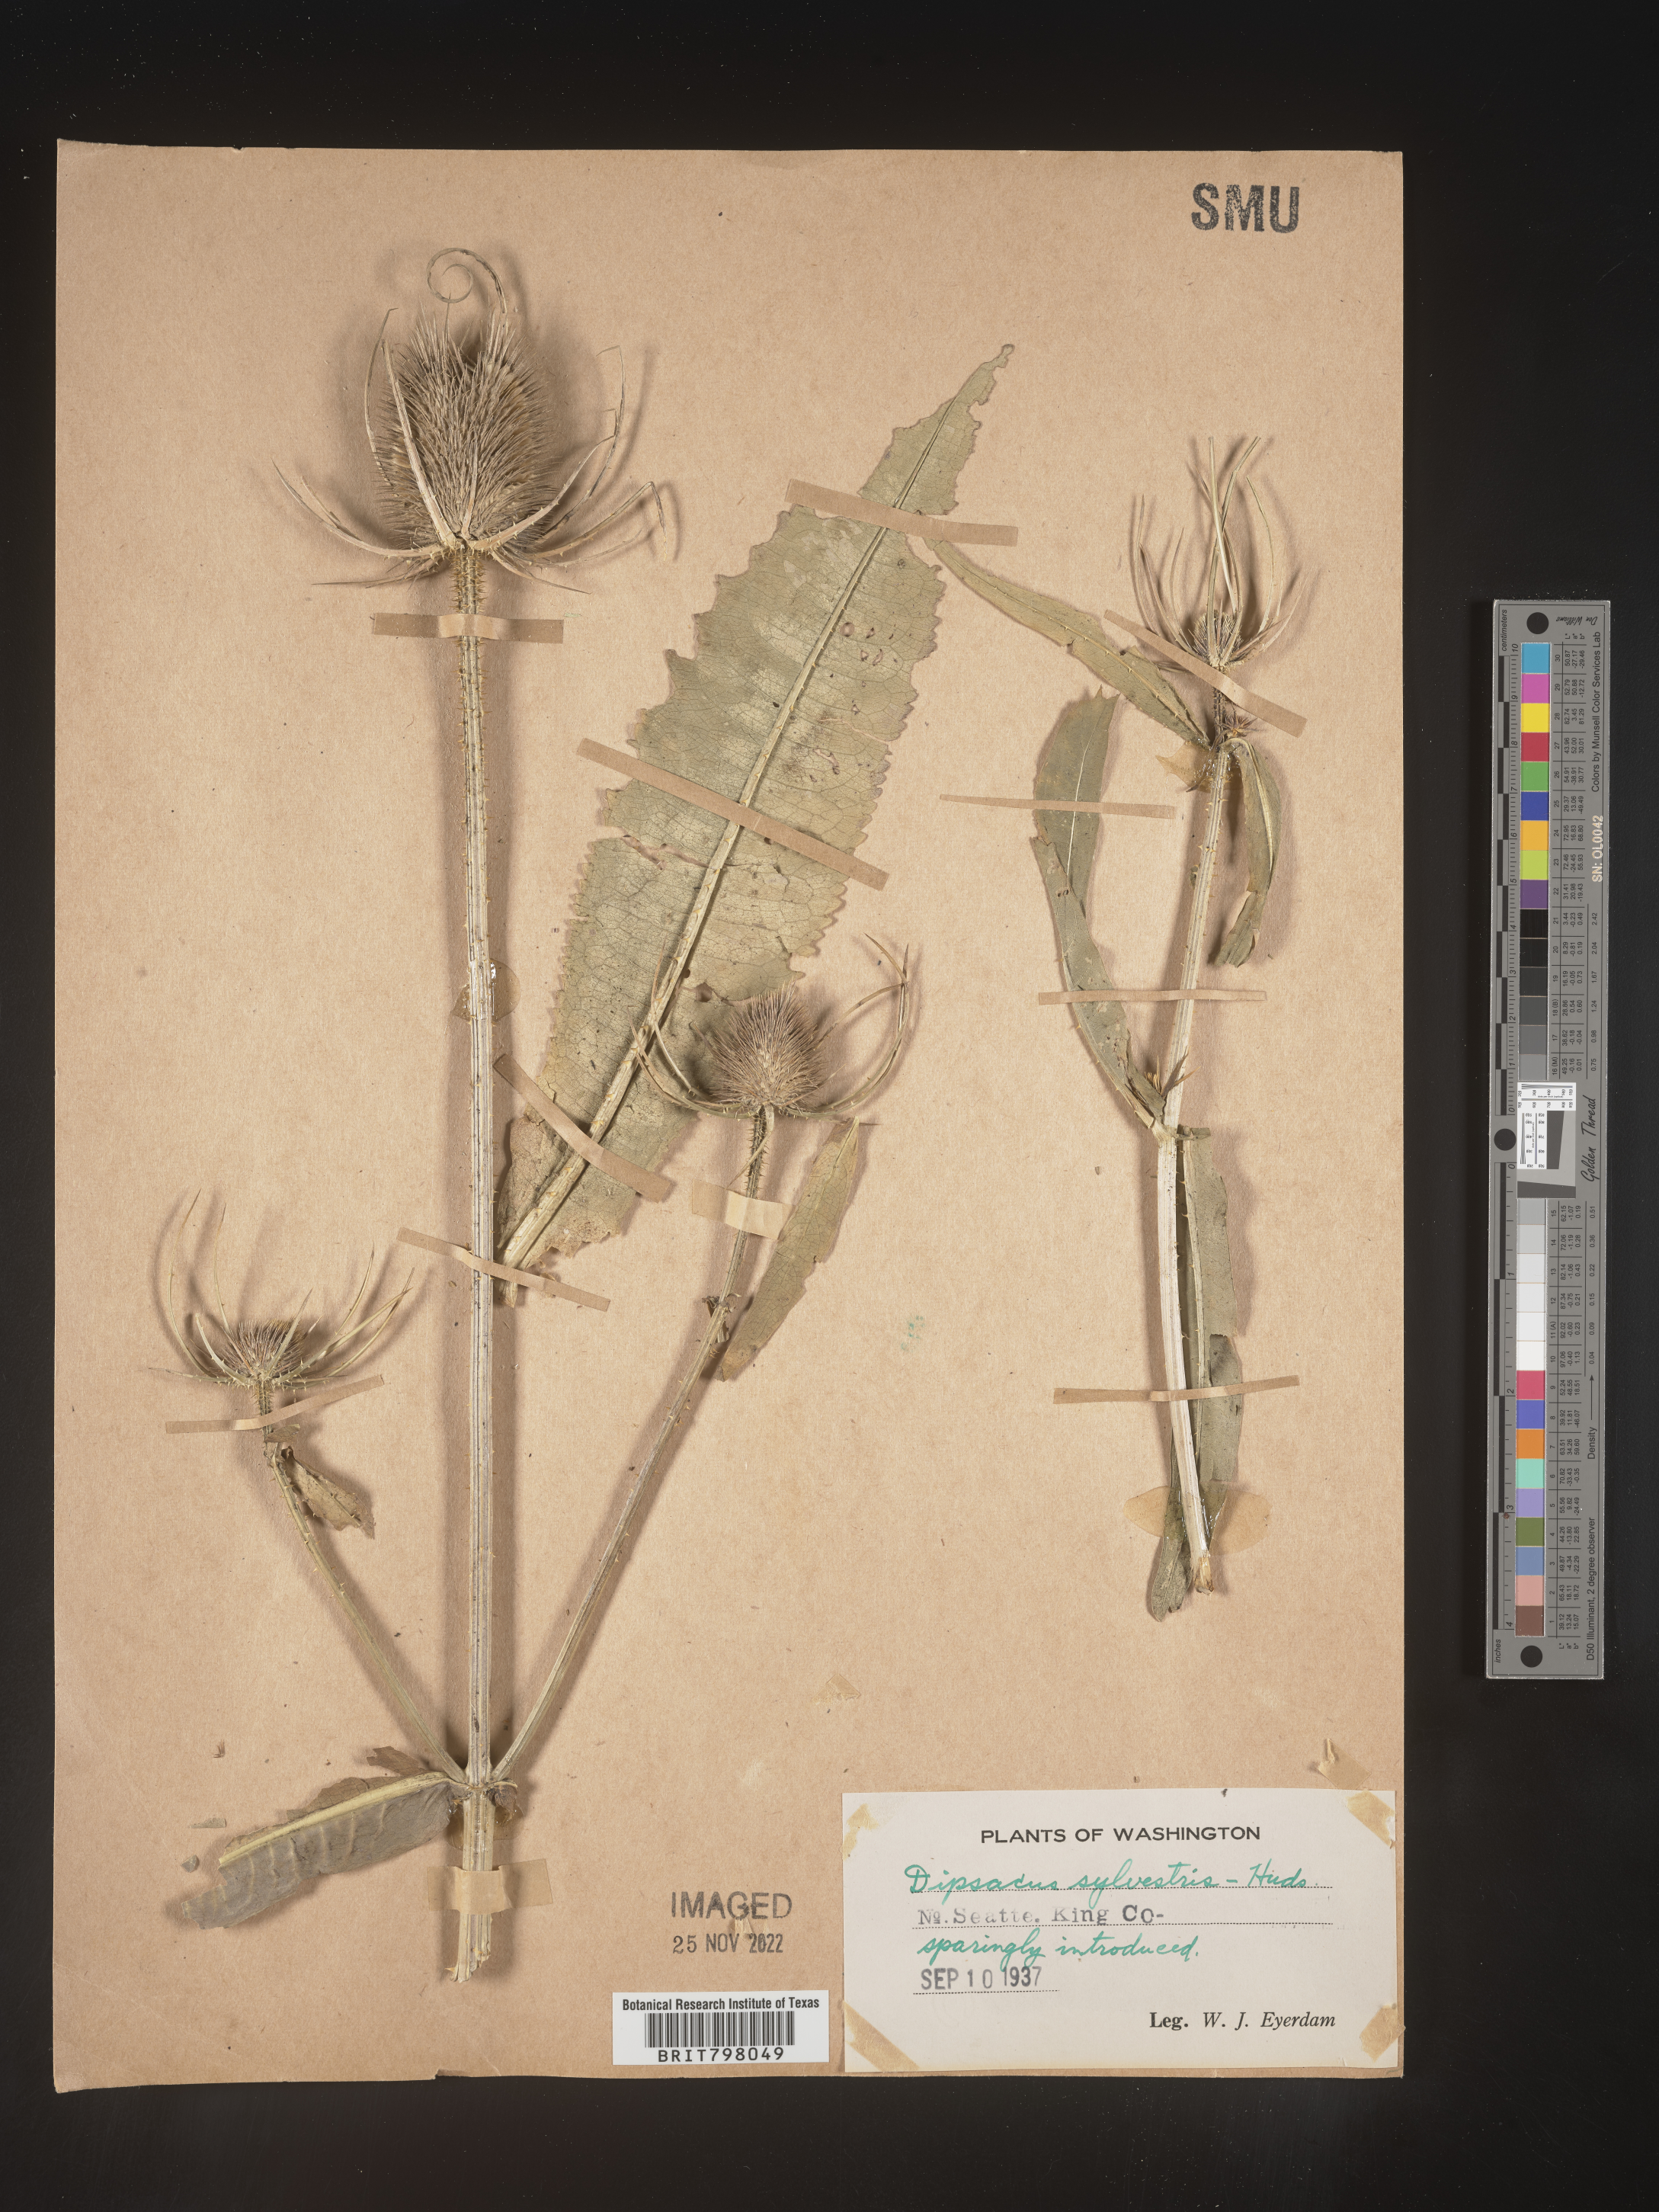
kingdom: Plantae
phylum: Tracheophyta
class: Magnoliopsida
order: Dipsacales
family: Caprifoliaceae
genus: Dipsacus
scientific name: Dipsacus fullonum
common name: Teasel
